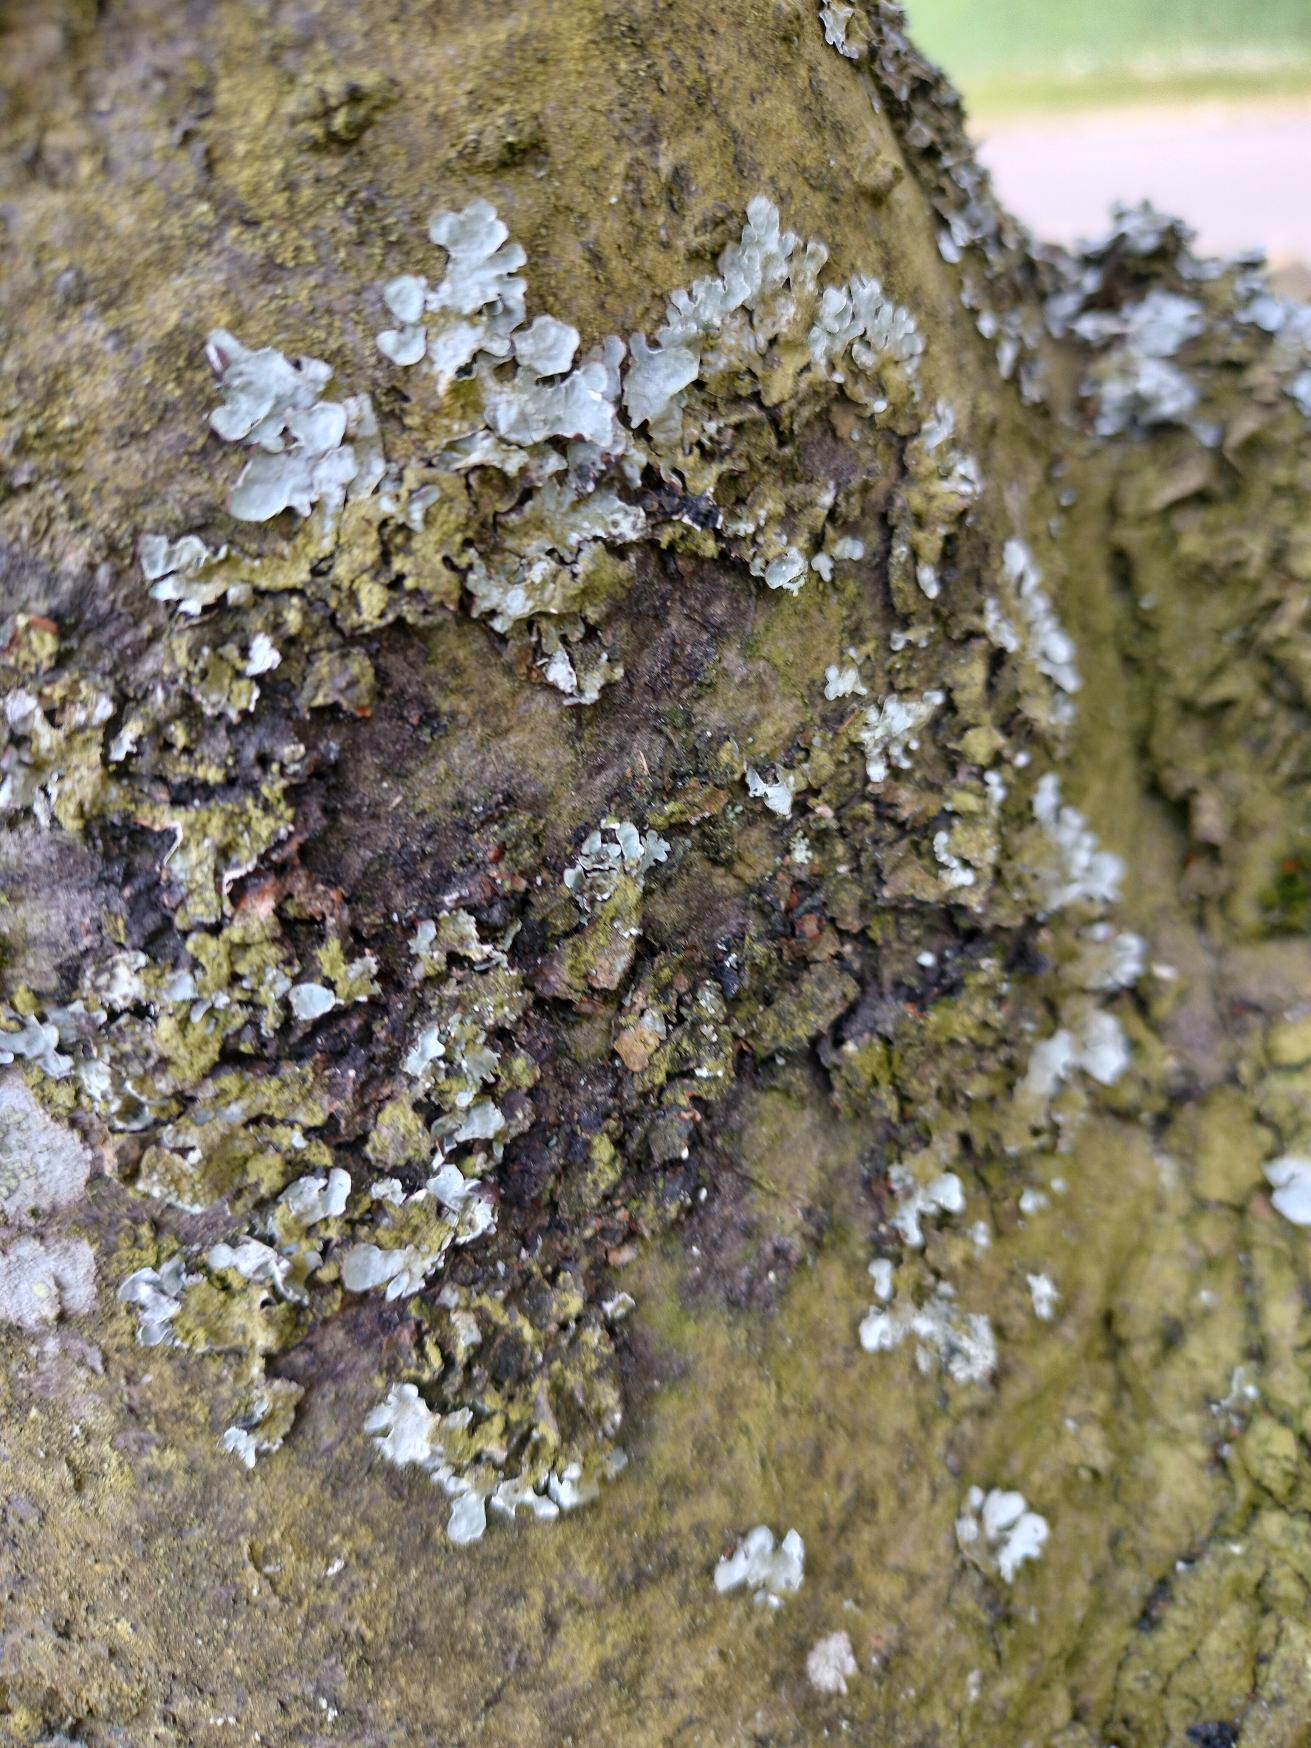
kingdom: Fungi
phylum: Ascomycota
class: Lecanoromycetes
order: Lecanorales
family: Parmeliaceae
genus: Parmelia
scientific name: Parmelia sulcata
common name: Rynket skållav
